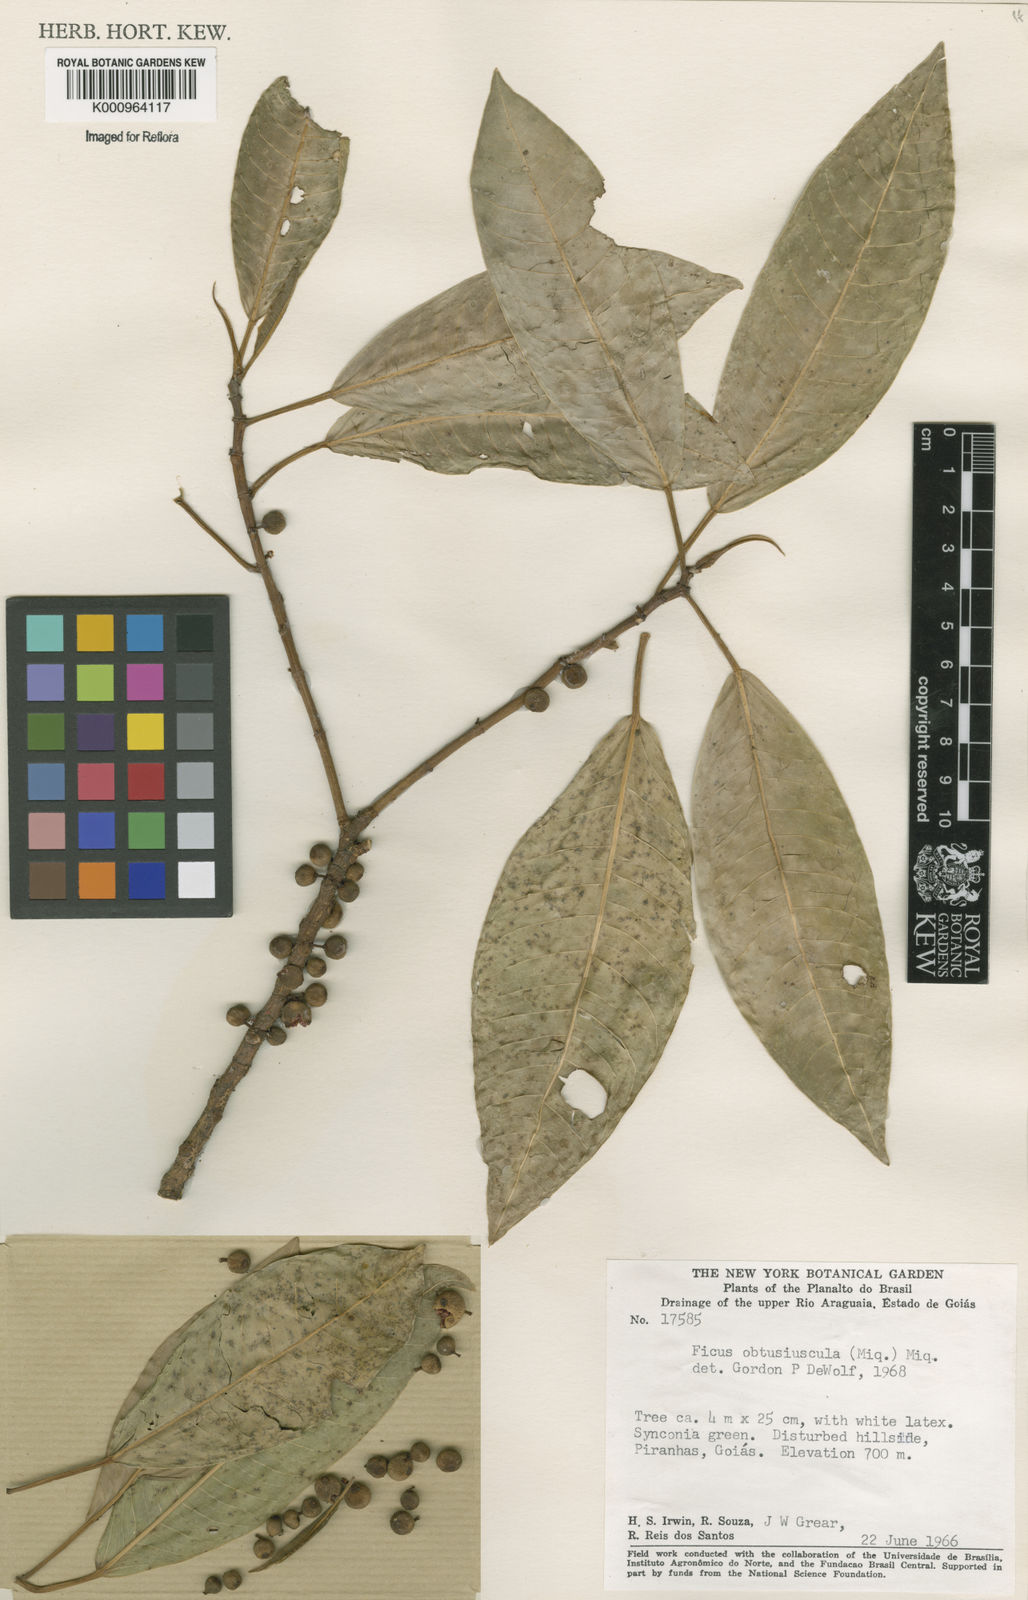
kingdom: Plantae
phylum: Tracheophyta
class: Magnoliopsida
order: Rosales
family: Moraceae
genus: Ficus
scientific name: Ficus obtusiuscula
